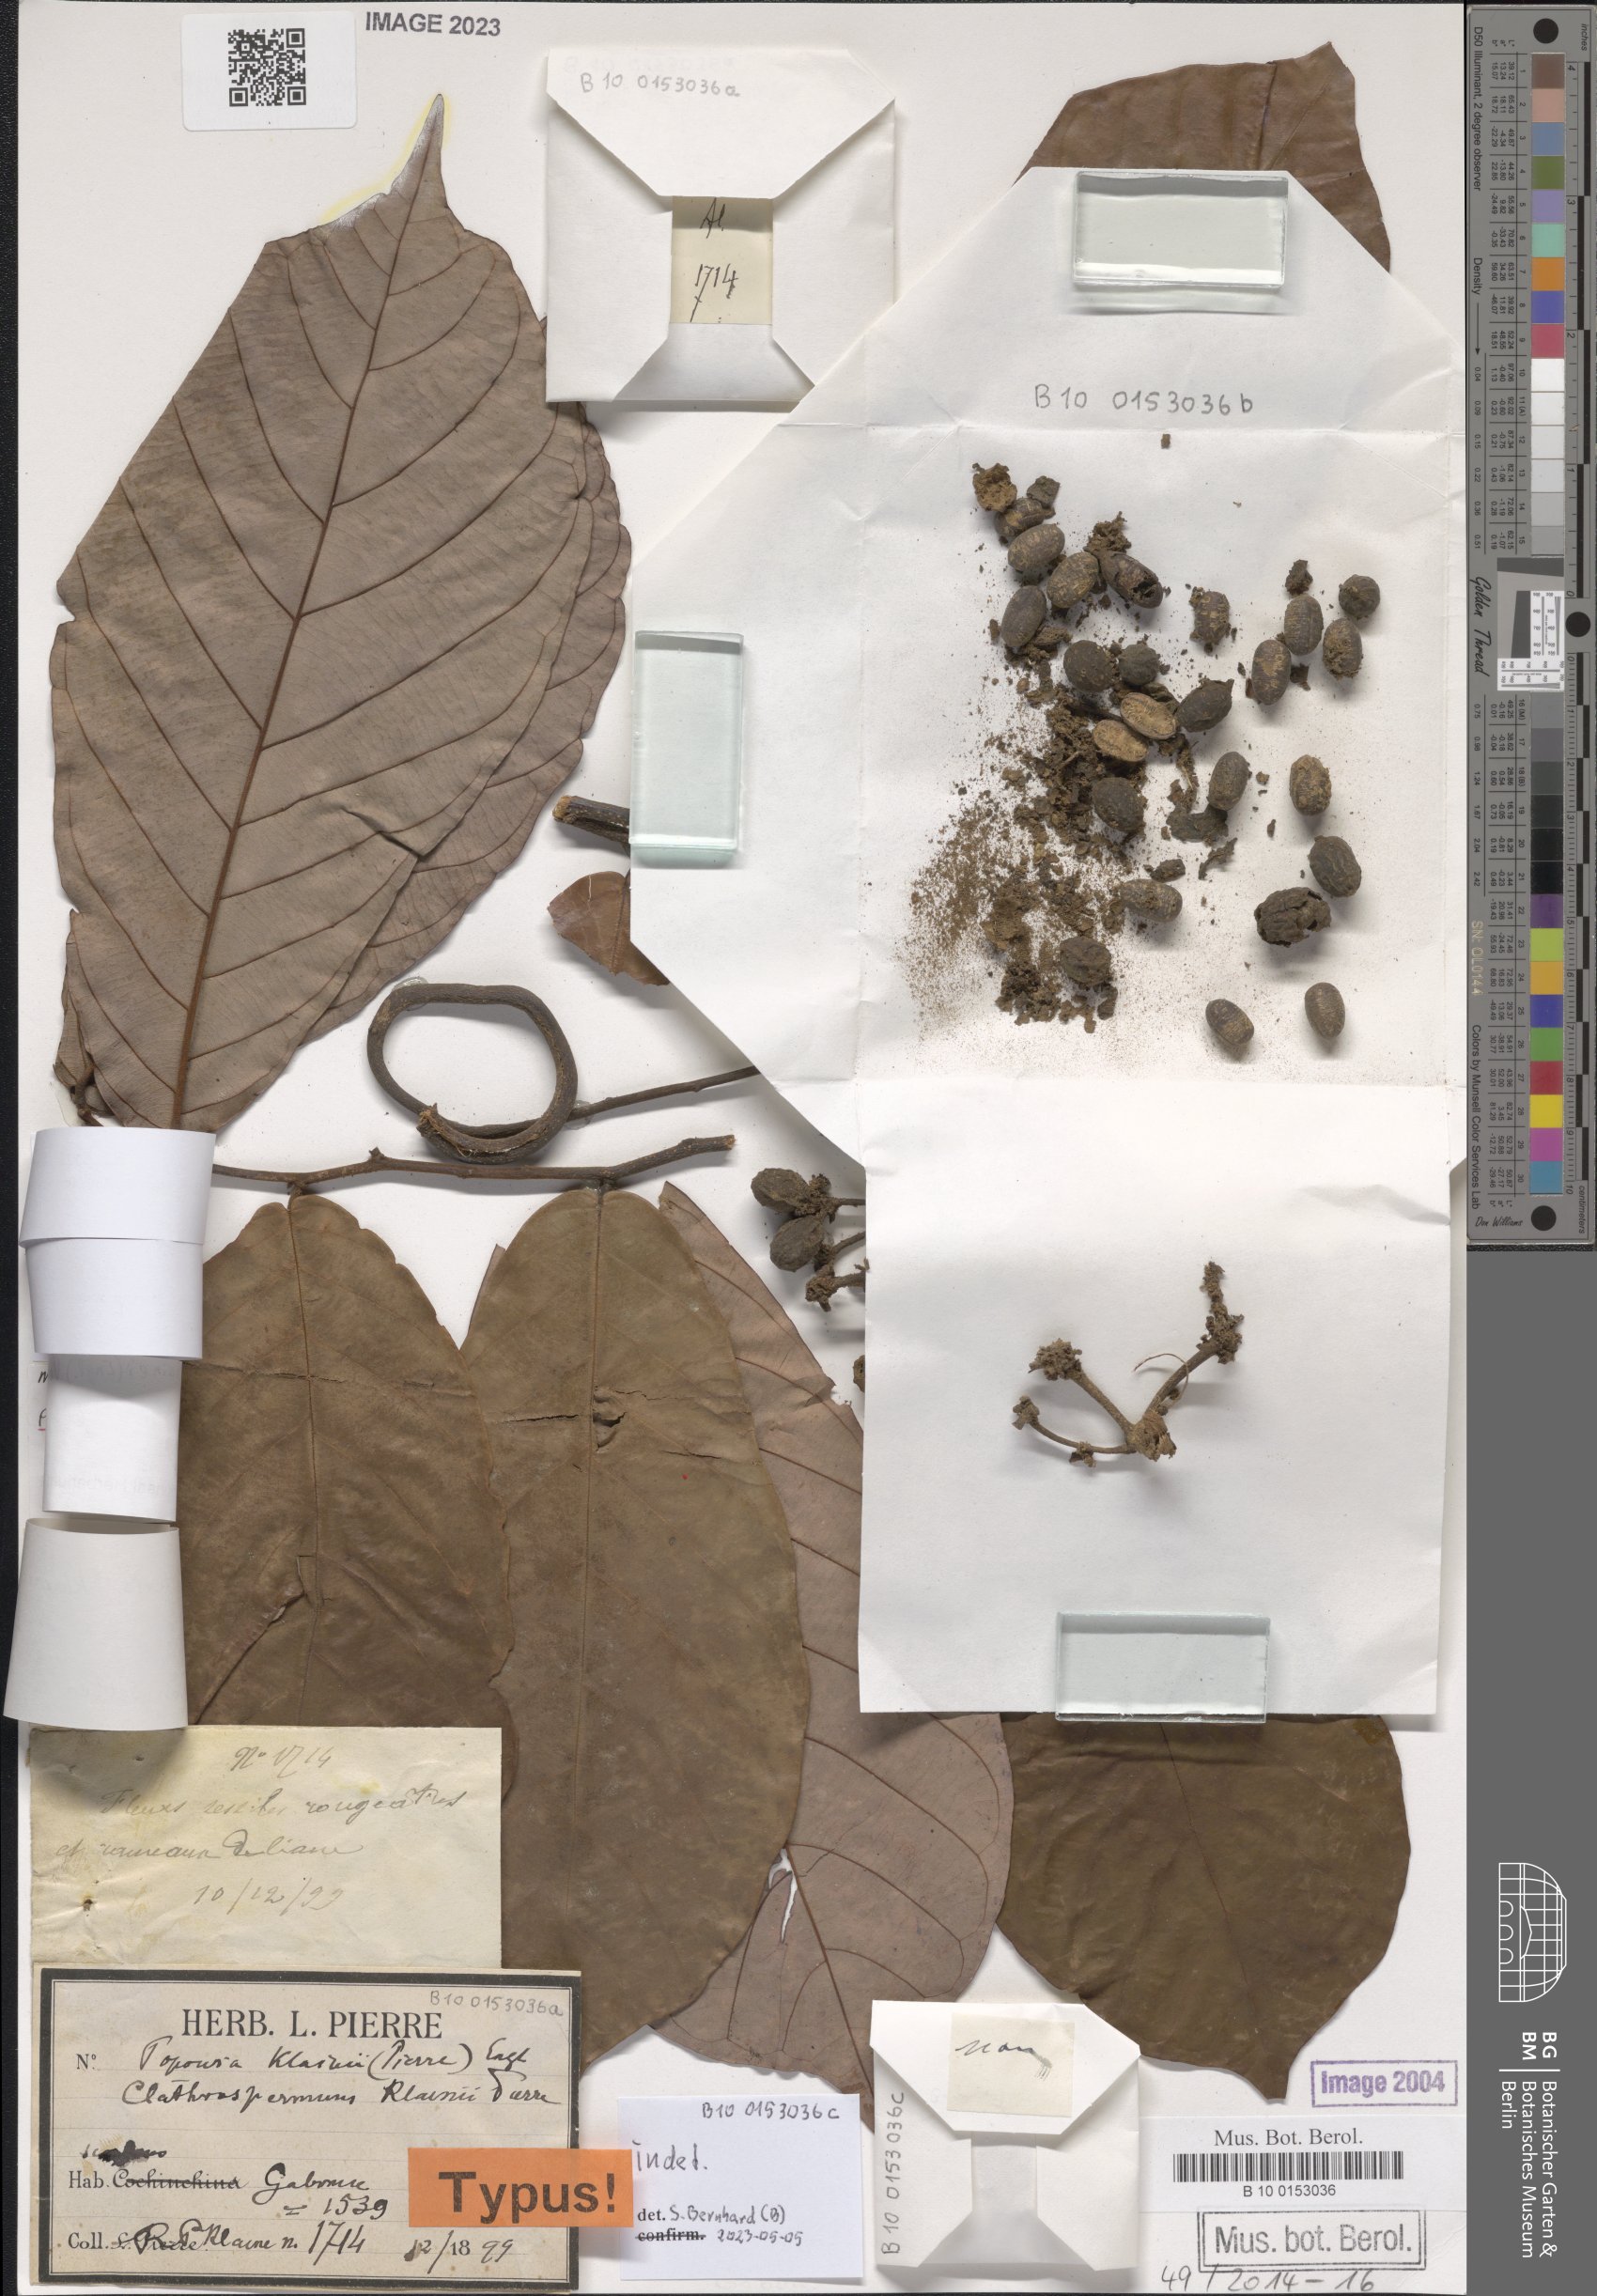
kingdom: Plantae
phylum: Tracheophyta
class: Magnoliopsida
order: Magnoliales
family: Annonaceae
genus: Monanthotaxis
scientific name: Monanthotaxis klainii
